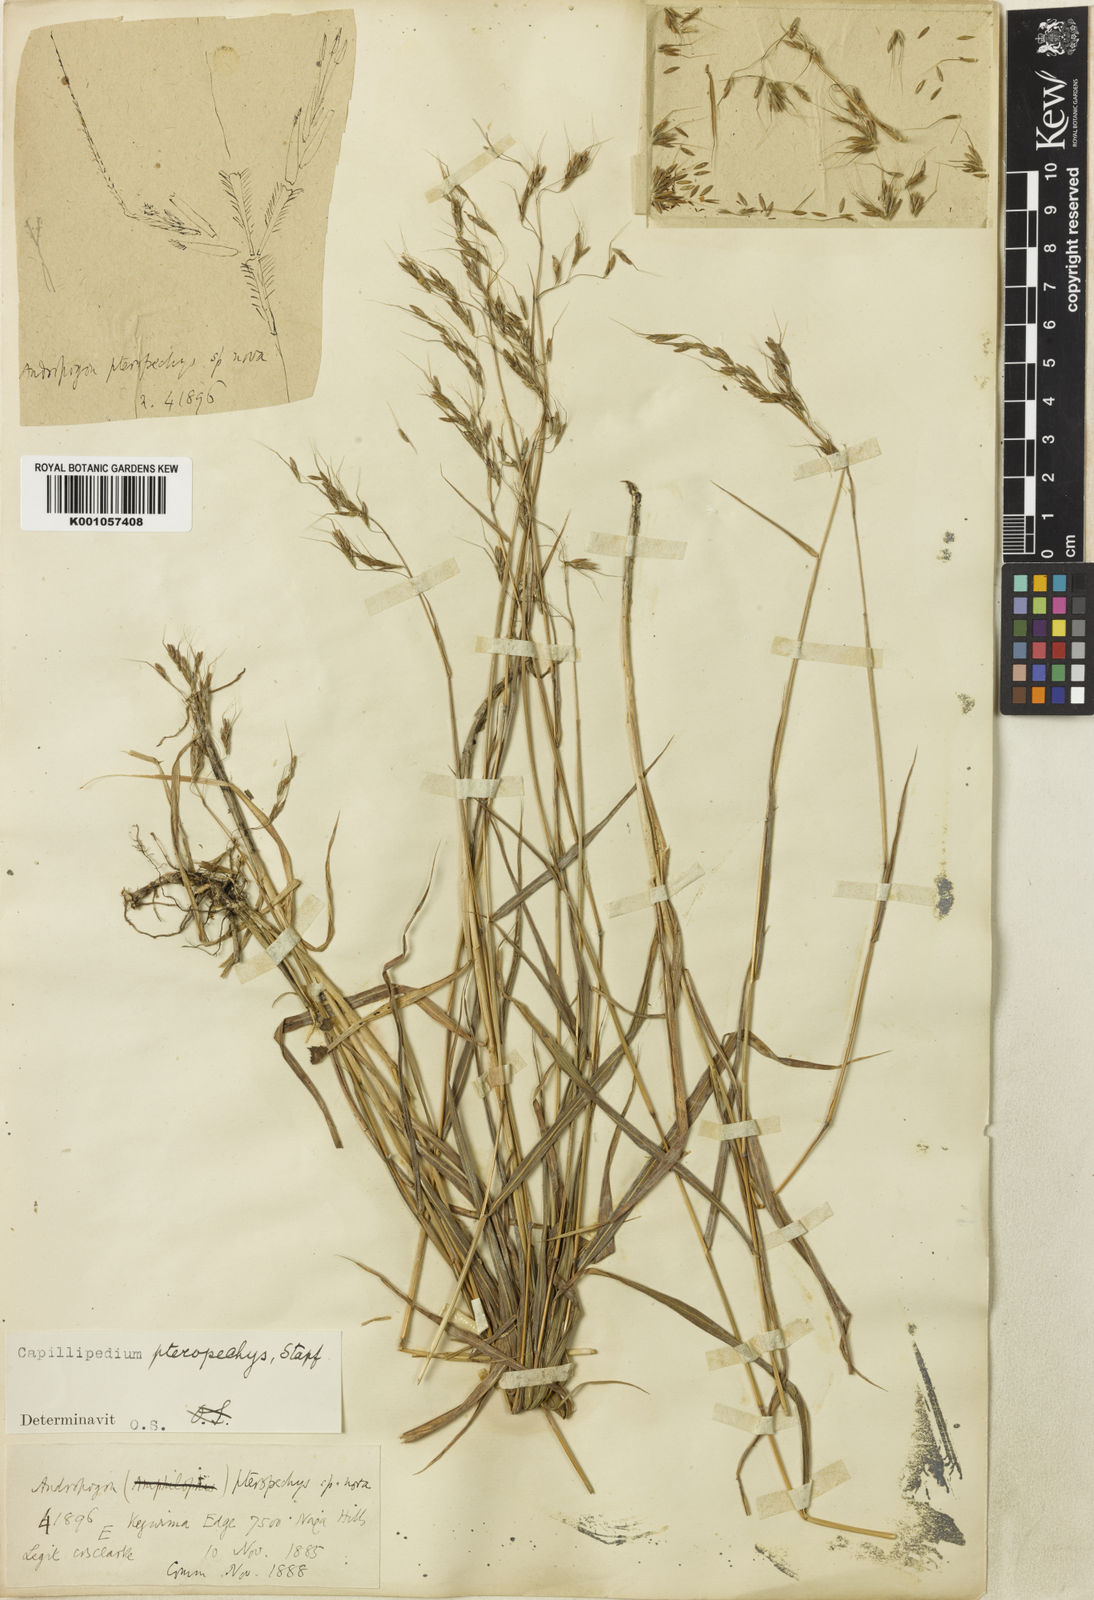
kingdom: Plantae
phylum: Tracheophyta
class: Liliopsida
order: Poales
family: Poaceae
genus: Capillipedium
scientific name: Capillipedium pteropechys
